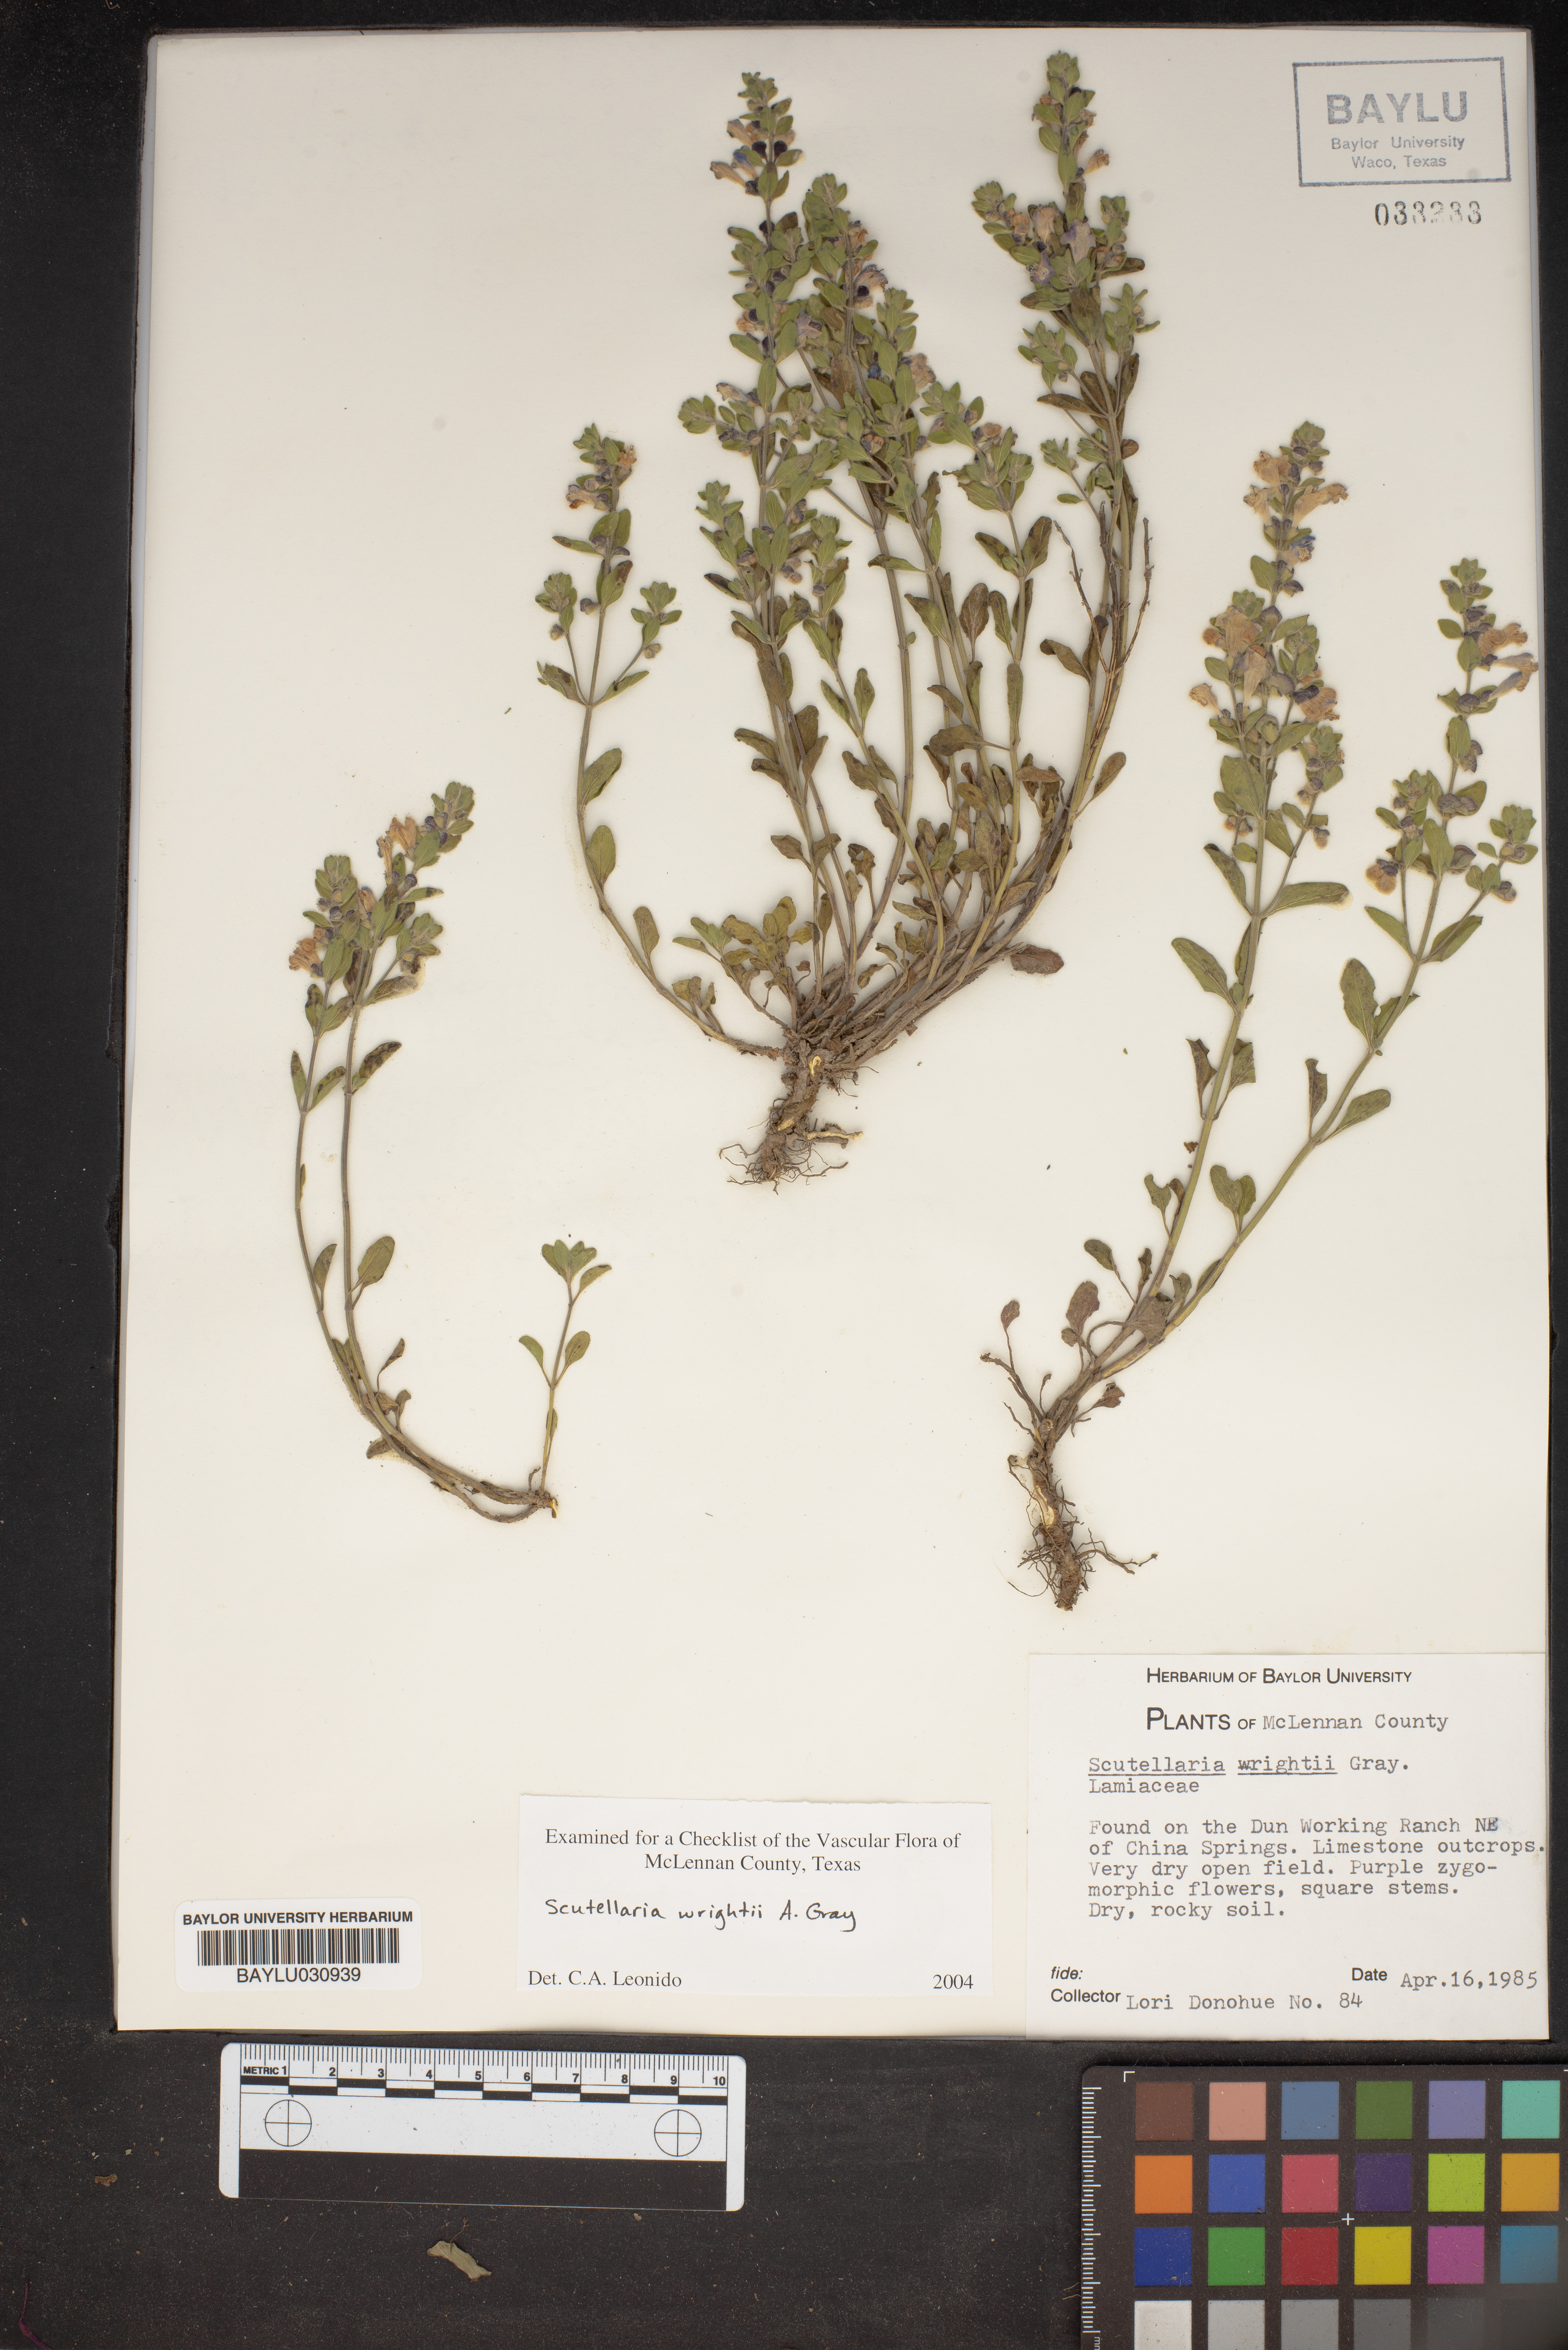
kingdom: Plantae
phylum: Tracheophyta
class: Magnoliopsida
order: Lamiales
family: Lamiaceae
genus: Scutellaria
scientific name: Scutellaria wrightii
